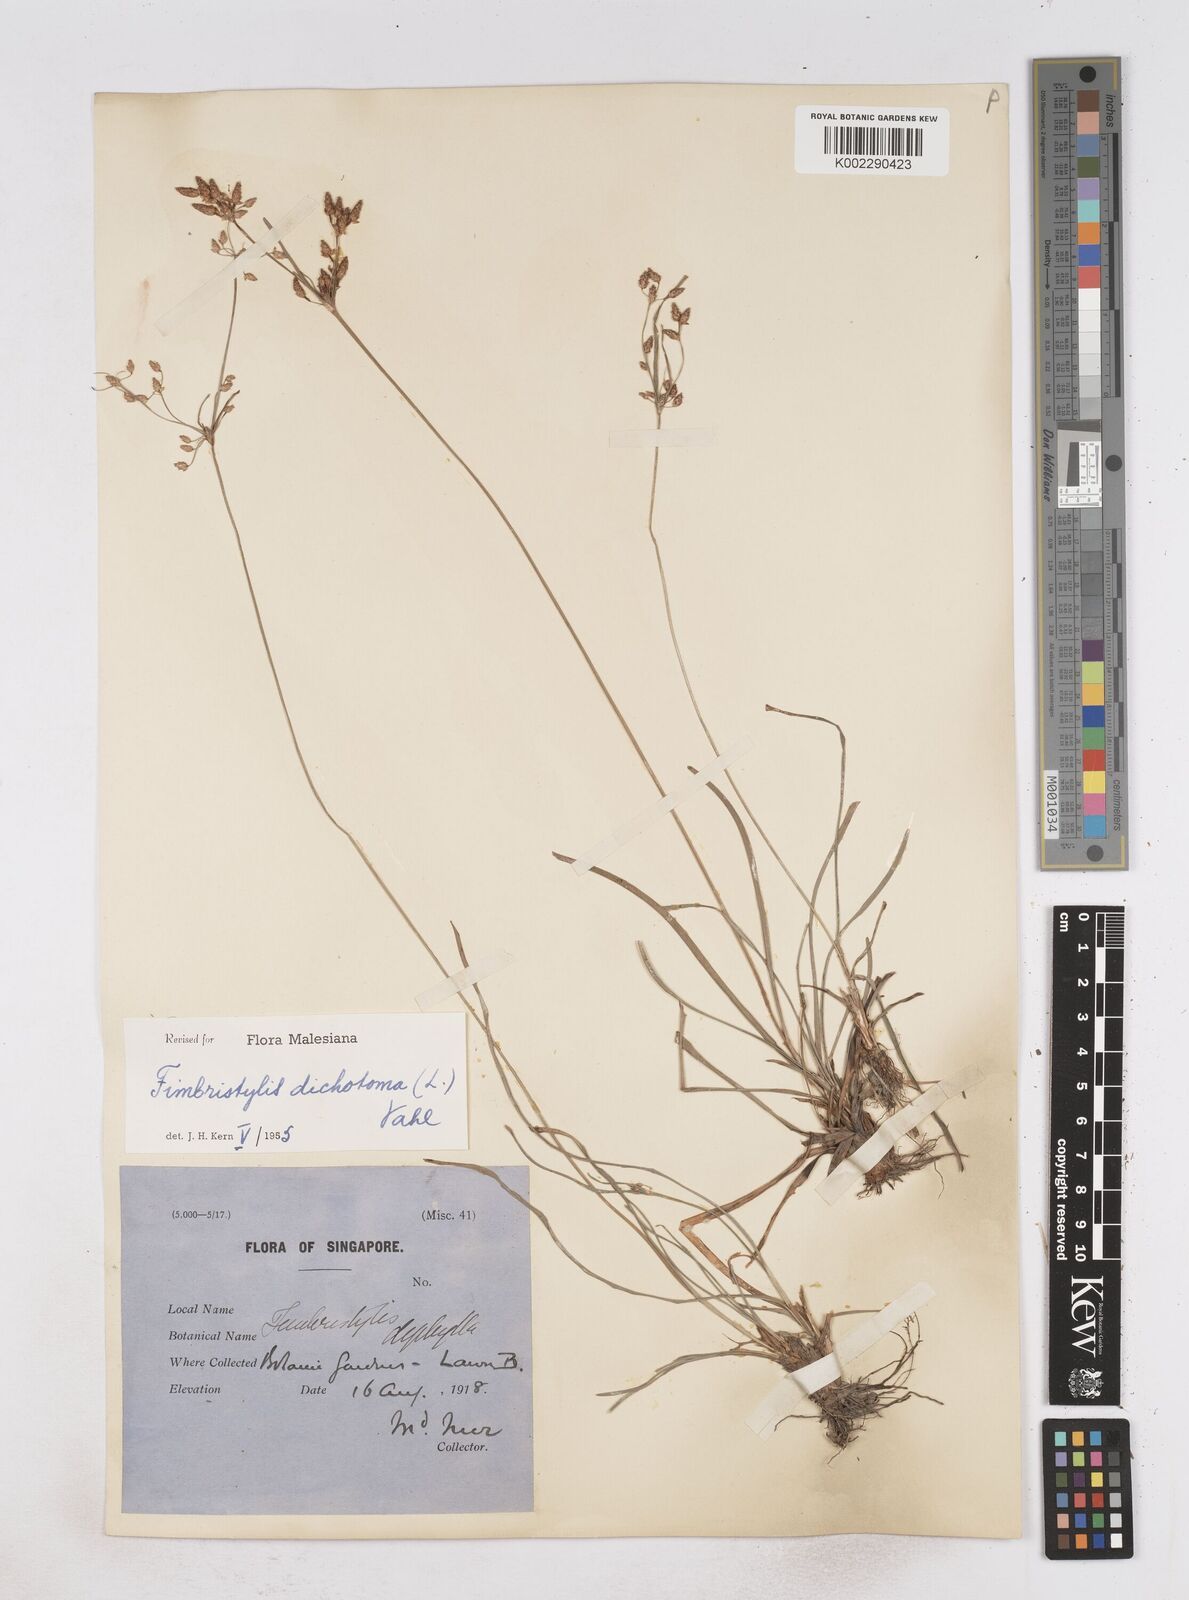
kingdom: Plantae
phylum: Tracheophyta
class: Liliopsida
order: Poales
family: Cyperaceae
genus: Fimbristylis
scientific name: Fimbristylis dichotoma
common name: Forked fimbry
